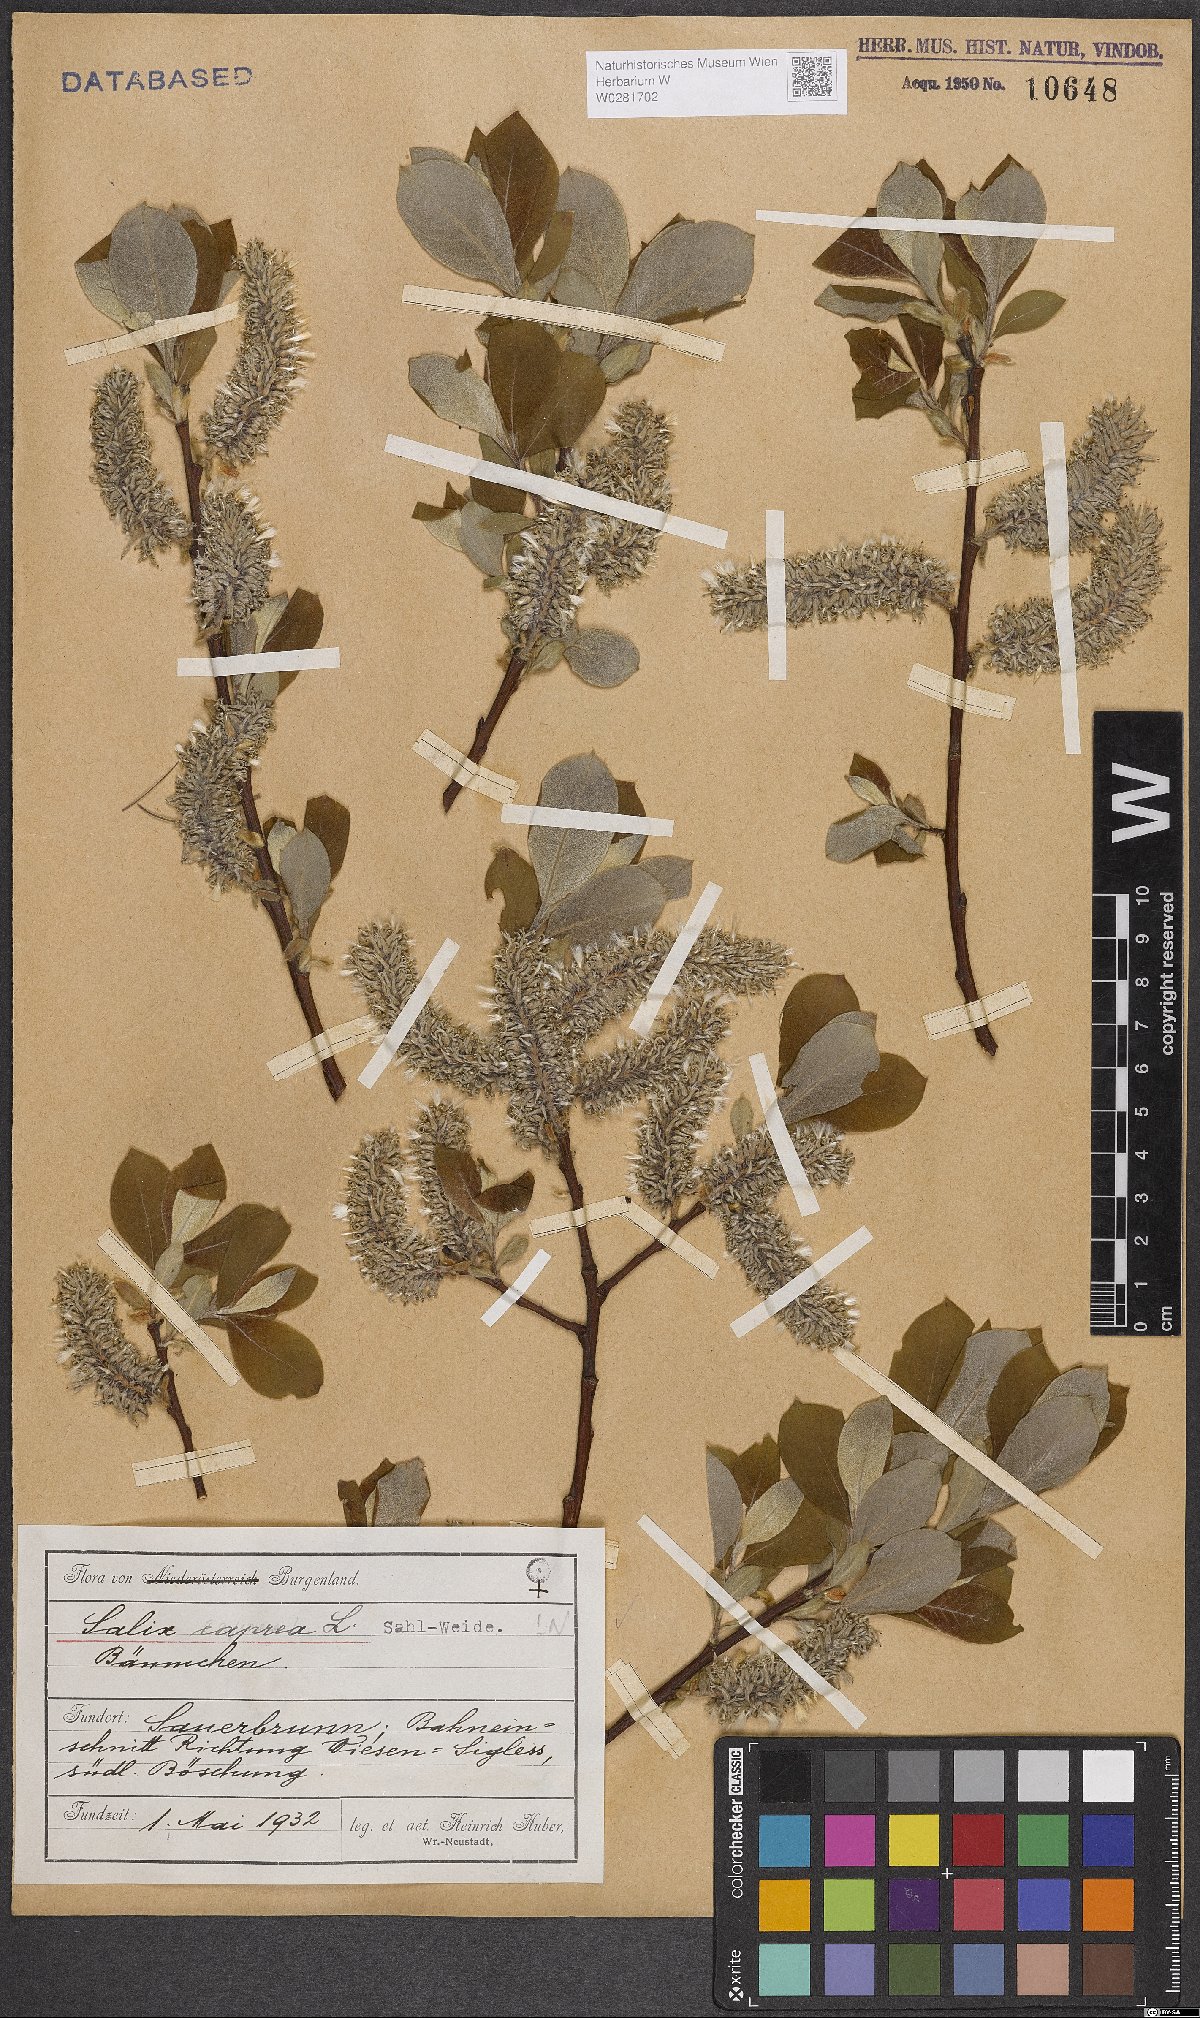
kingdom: Plantae
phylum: Tracheophyta
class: Magnoliopsida
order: Malpighiales
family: Salicaceae
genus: Salix
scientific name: Salix caprea
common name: Goat willow
